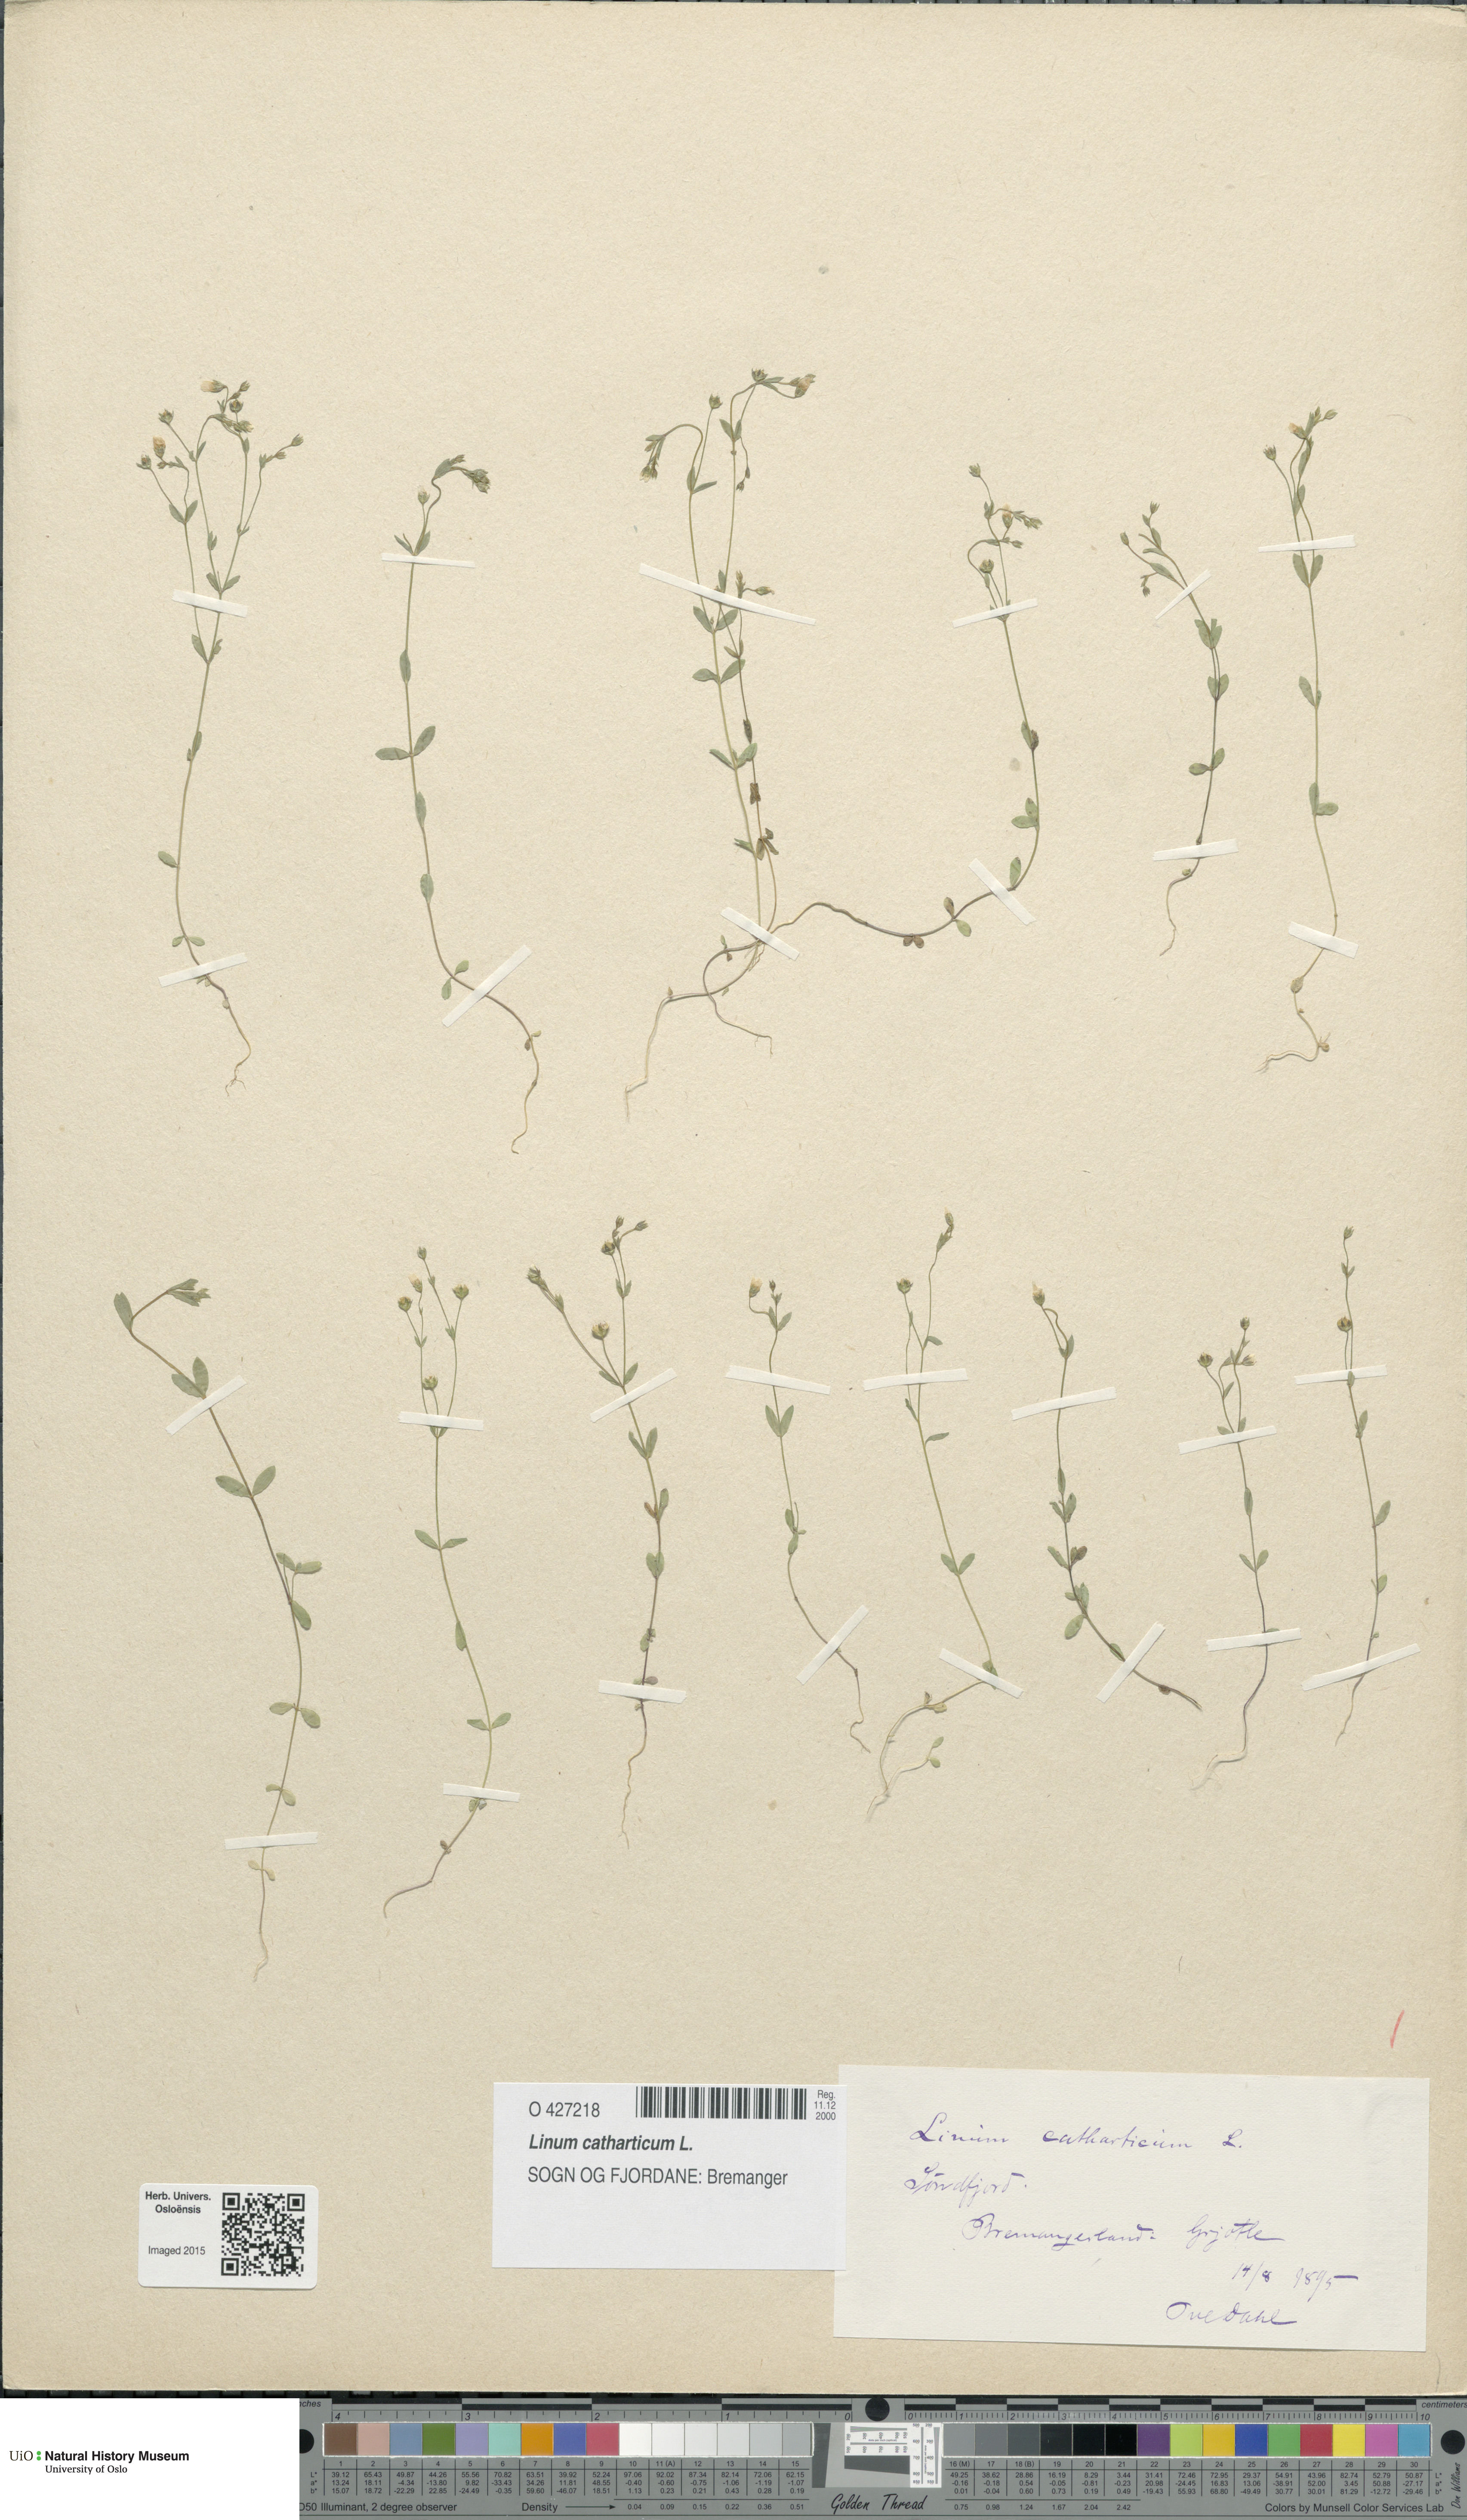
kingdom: Plantae
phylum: Tracheophyta
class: Magnoliopsida
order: Malpighiales
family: Linaceae
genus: Linum
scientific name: Linum catharticum
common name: Fairy flax
